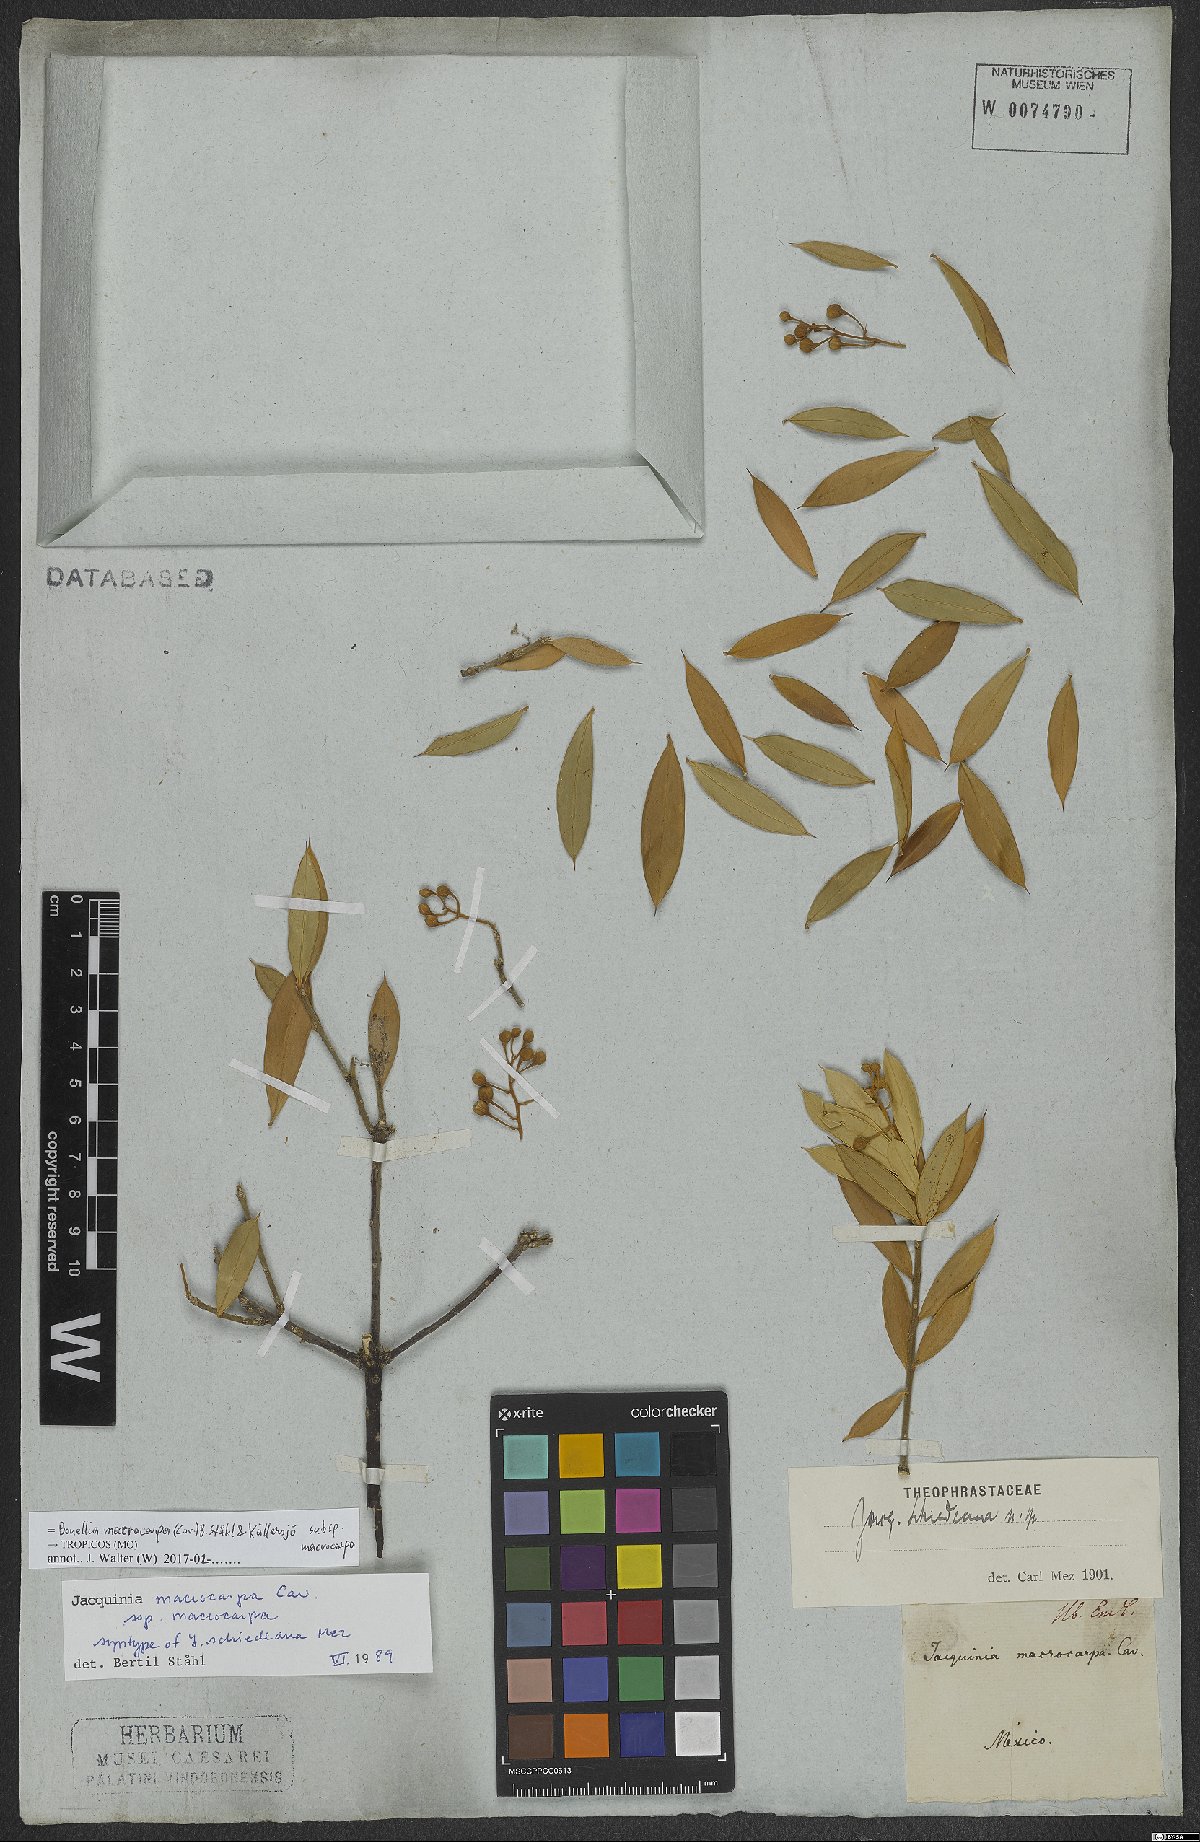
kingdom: Plantae
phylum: Tracheophyta
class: Magnoliopsida
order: Ericales
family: Primulaceae
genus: Bonellia
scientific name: Bonellia macrocarpa
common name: Primrose
